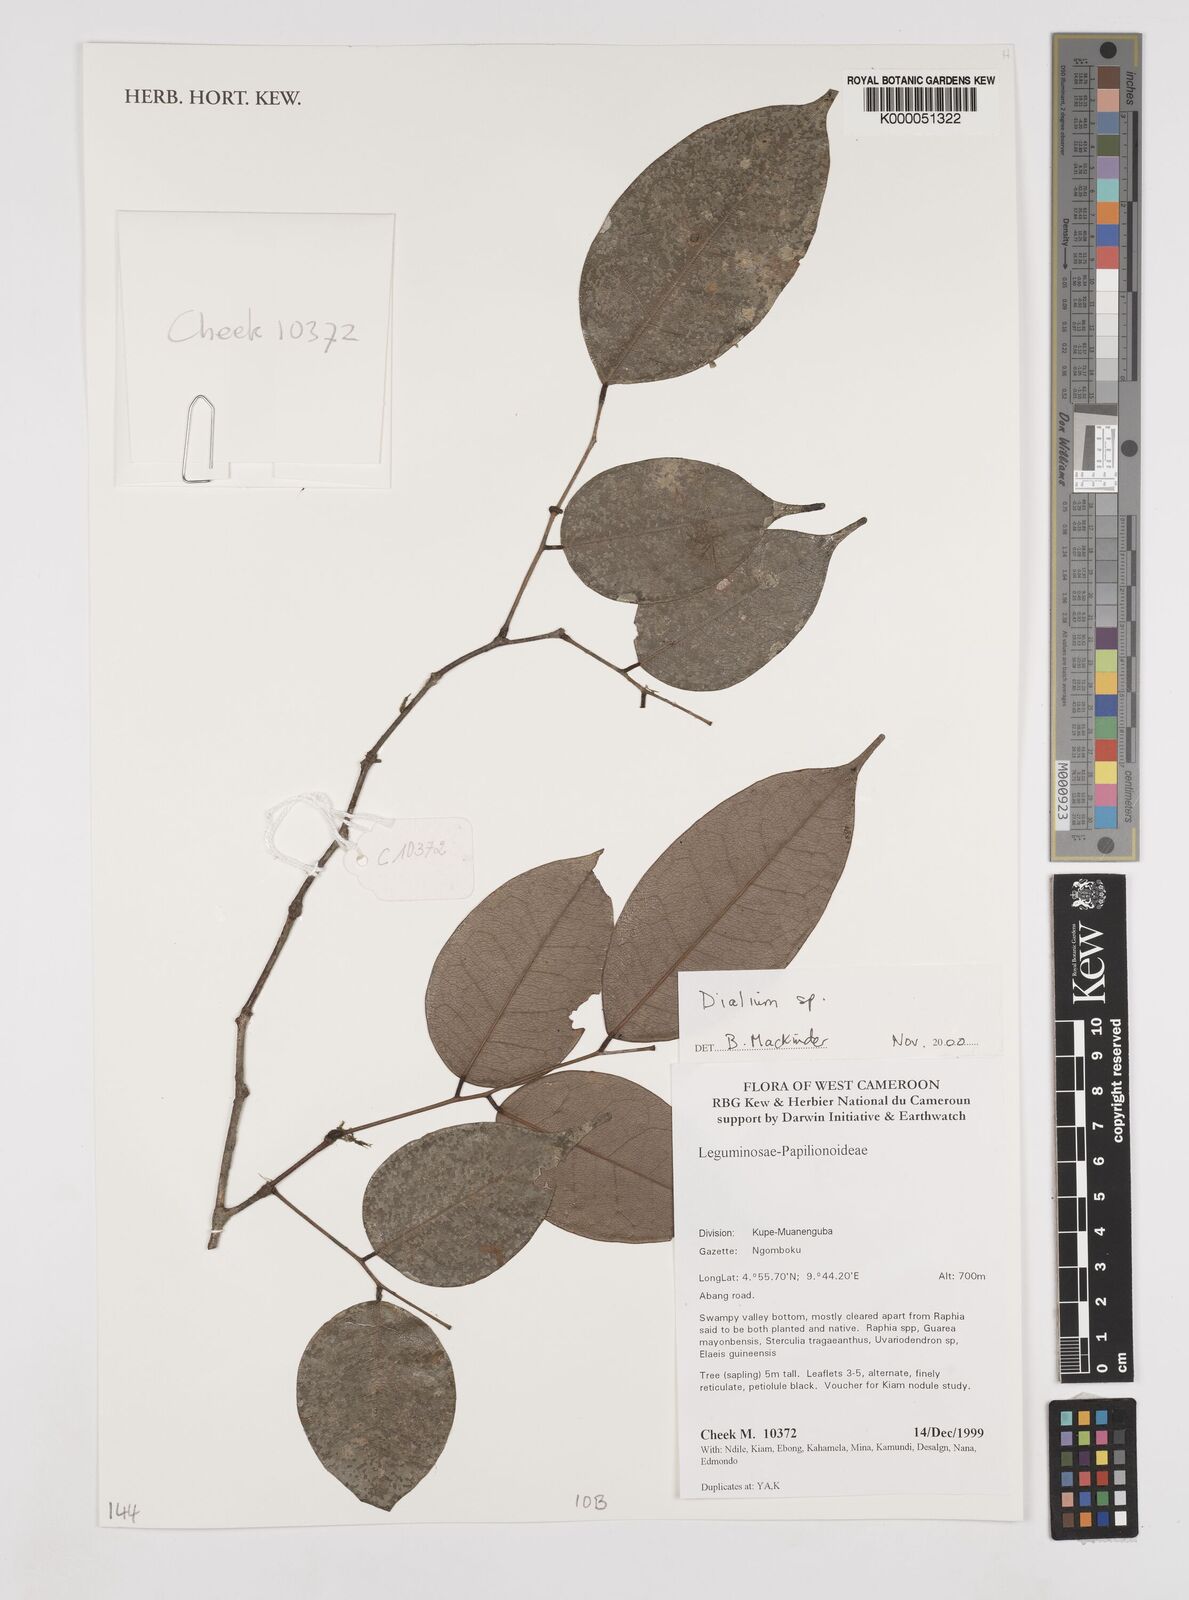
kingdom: Plantae
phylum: Tracheophyta
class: Magnoliopsida
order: Fabales
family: Fabaceae
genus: Dialium
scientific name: Dialium
